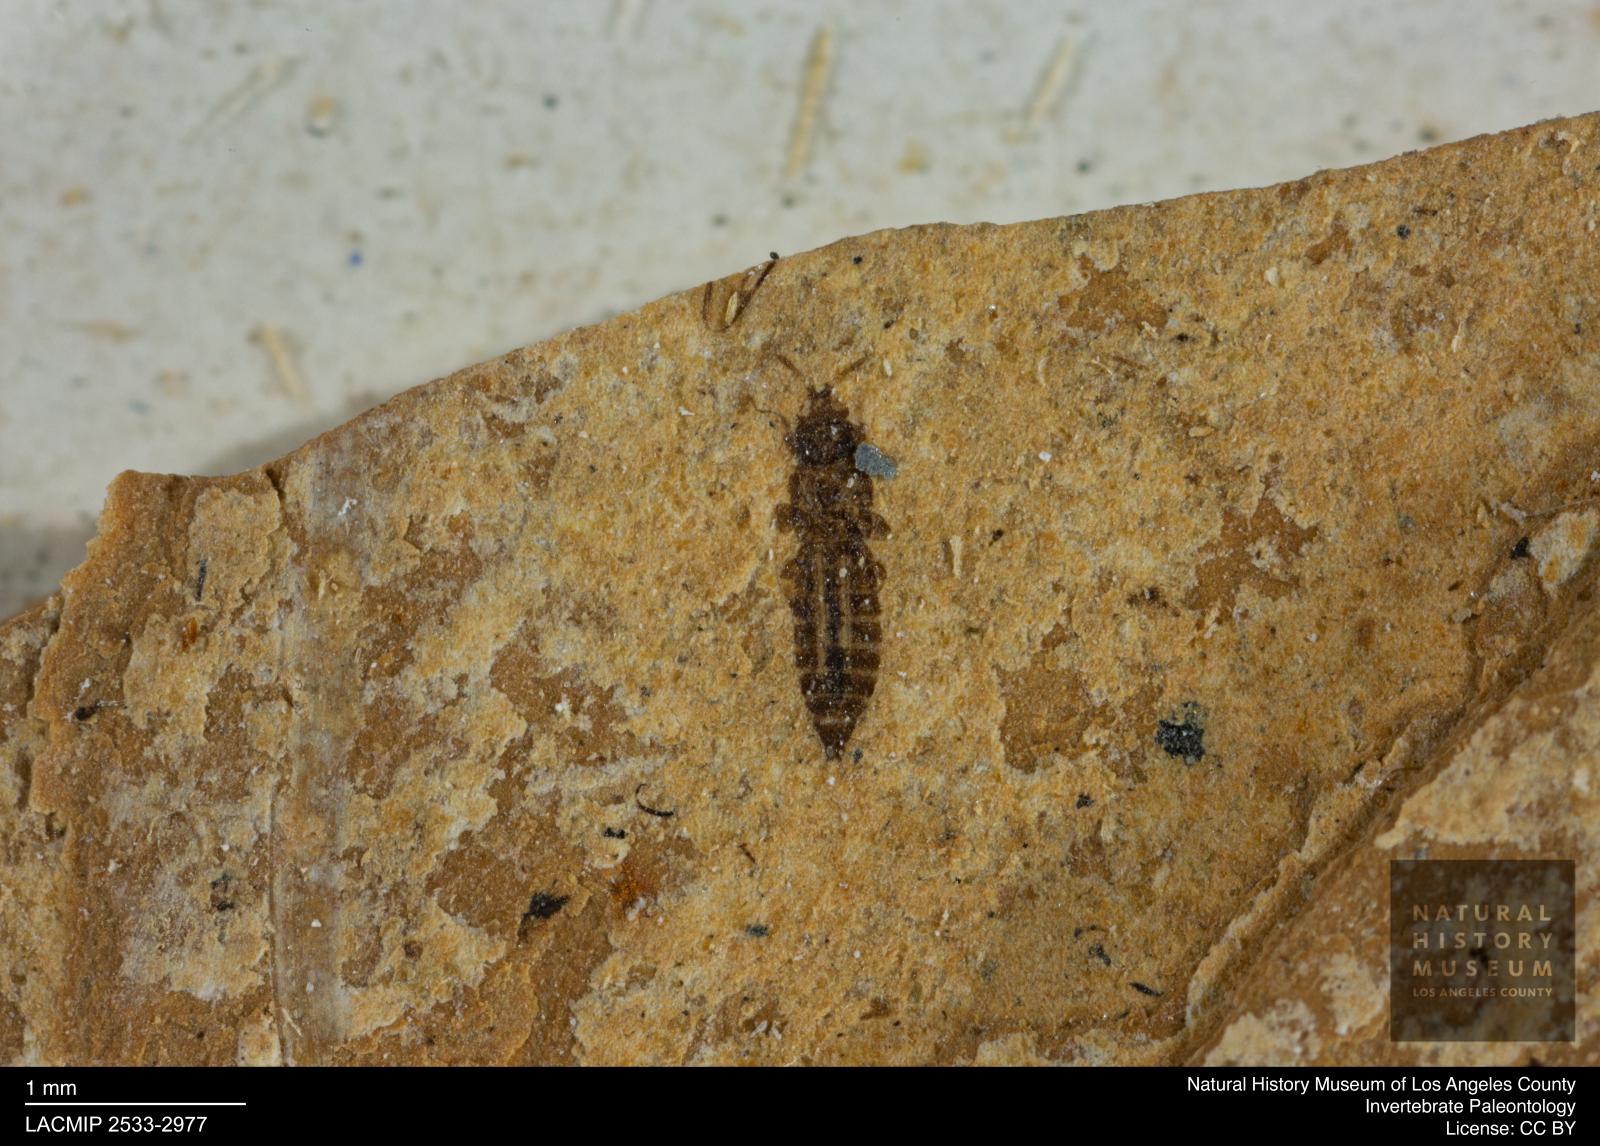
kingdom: Animalia
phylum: Arthropoda
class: Insecta
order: Thysanoptera
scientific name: Thysanoptera
